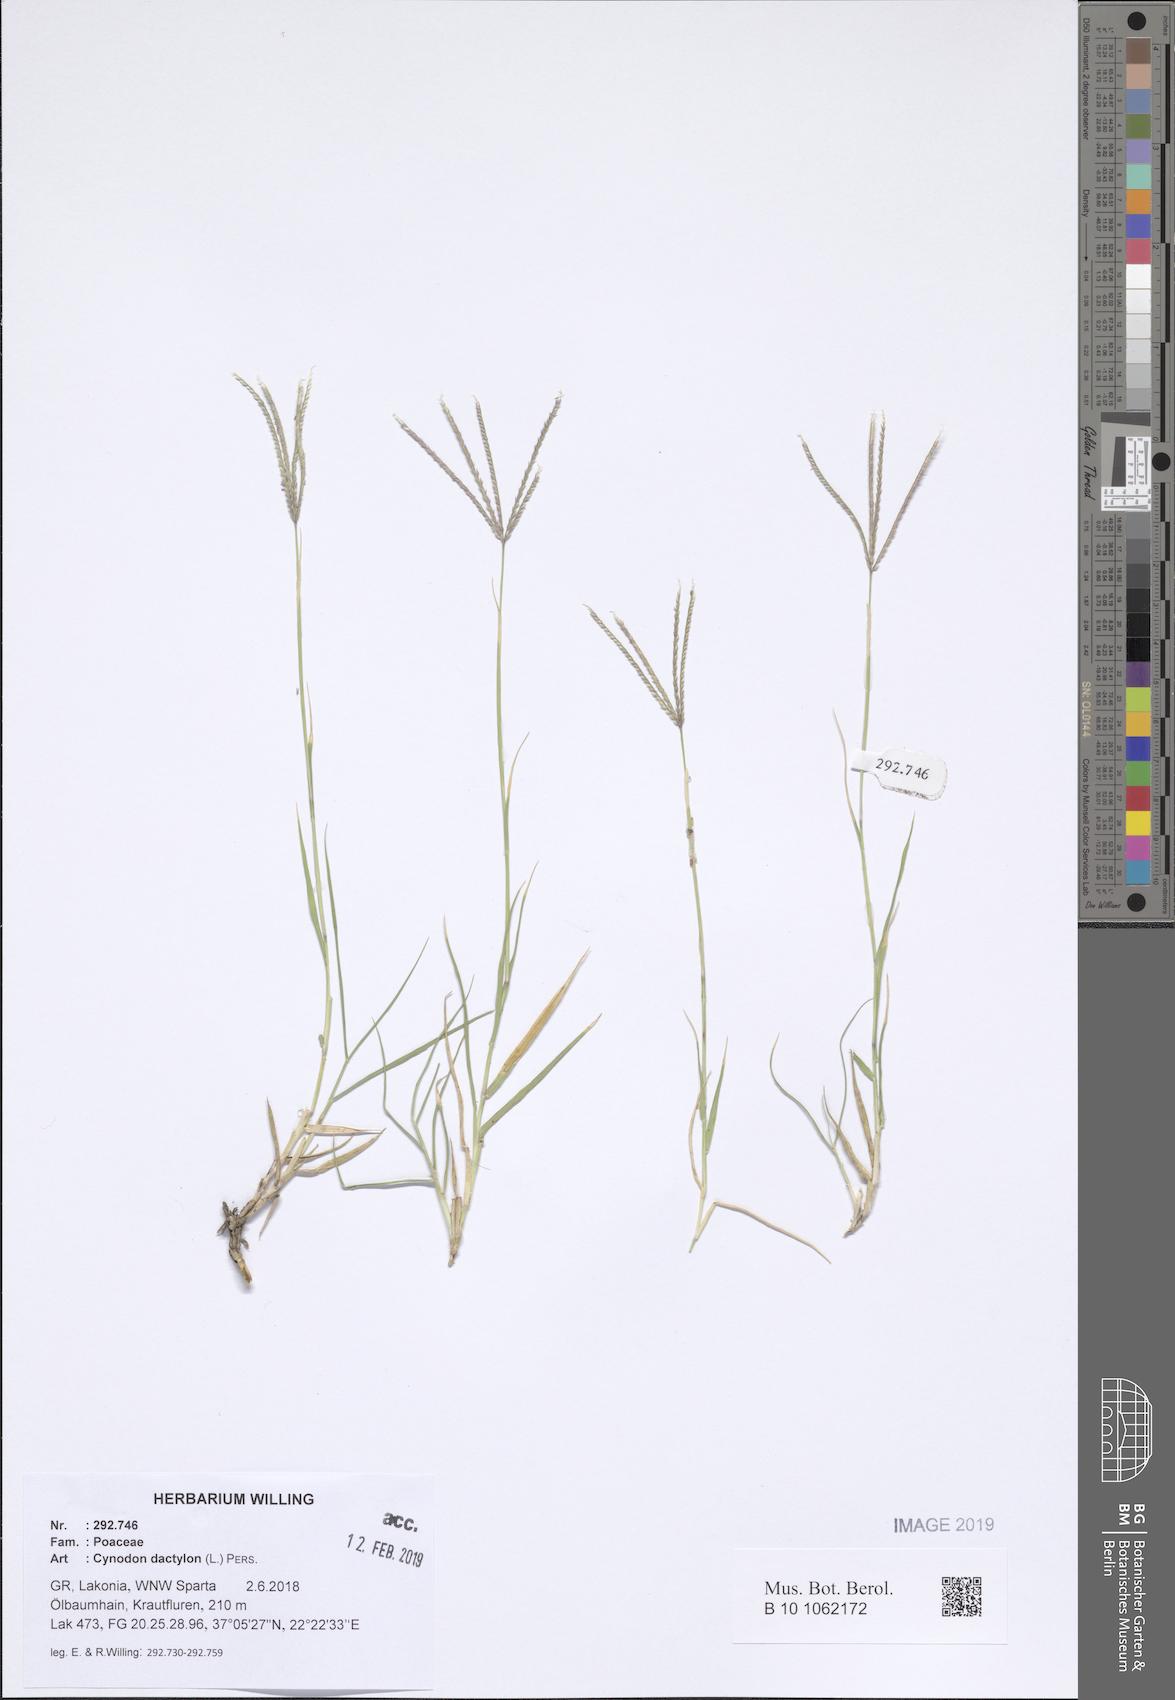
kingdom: Plantae
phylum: Tracheophyta
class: Liliopsida
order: Poales
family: Poaceae
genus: Cynodon
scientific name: Cynodon dactylon
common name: Bermuda grass
